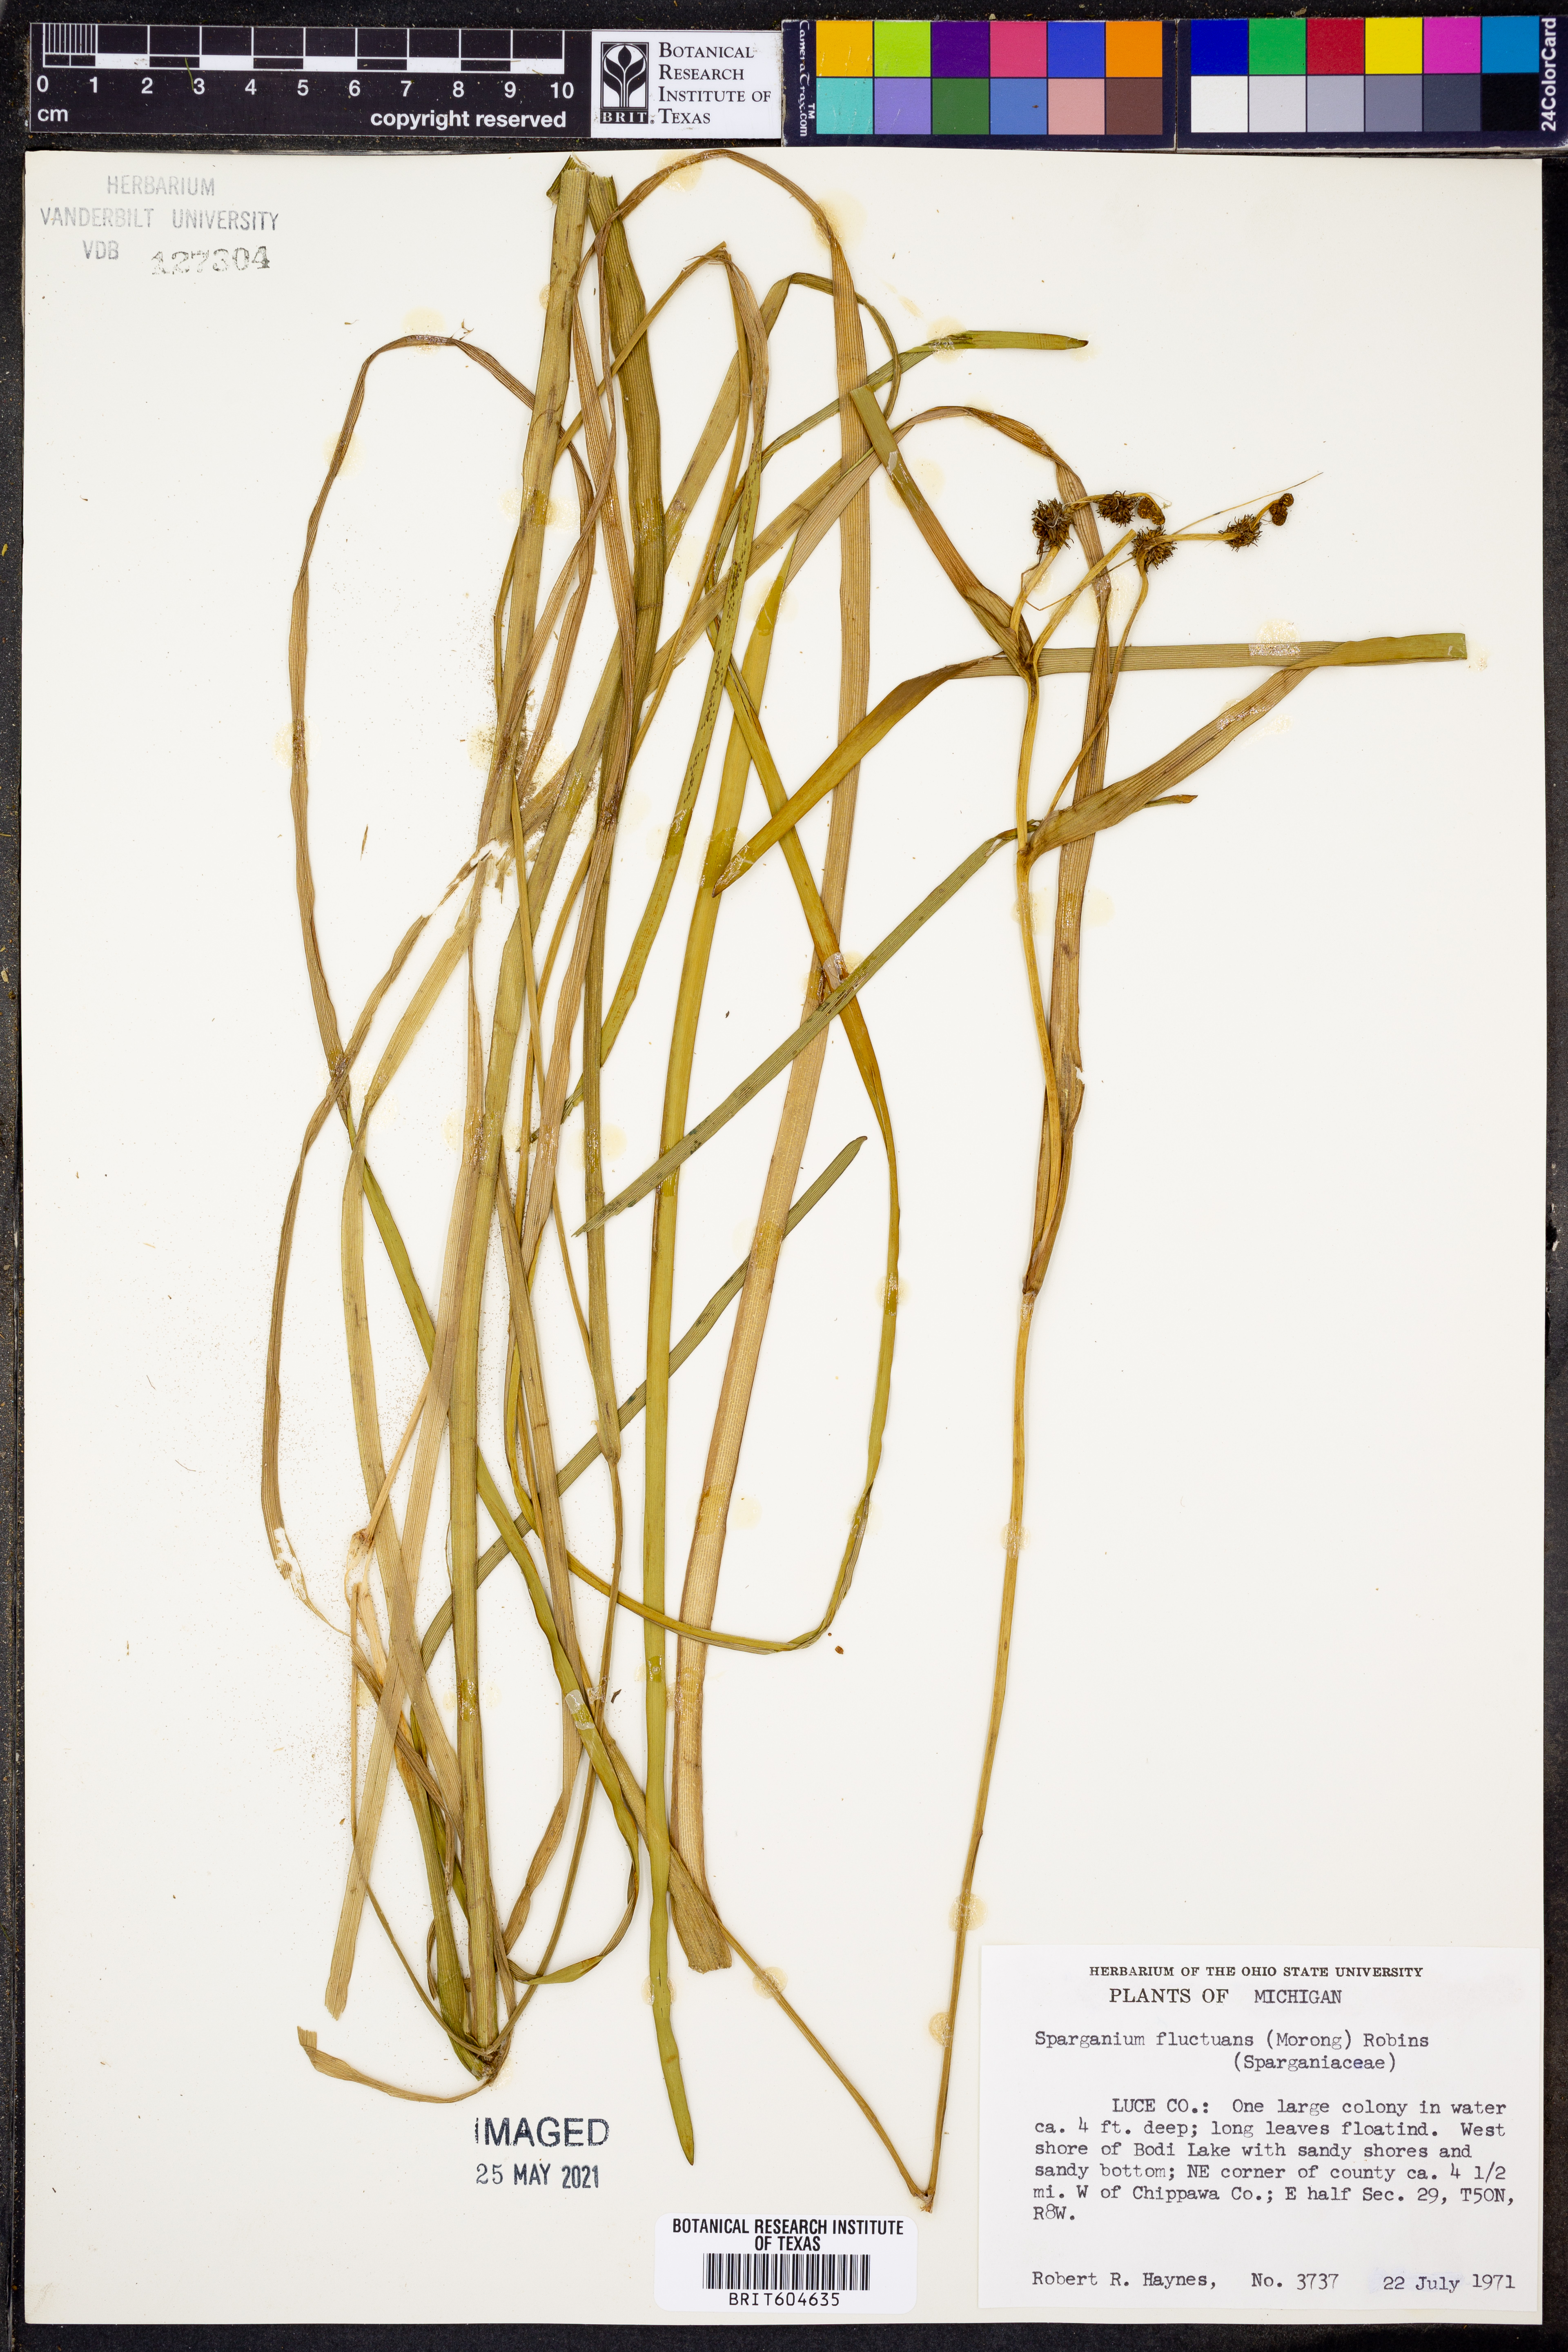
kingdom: Plantae
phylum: Tracheophyta
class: Liliopsida
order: Poales
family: Typhaceae
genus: Sparganium
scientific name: Sparganium fluctuans
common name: Floating burreed
